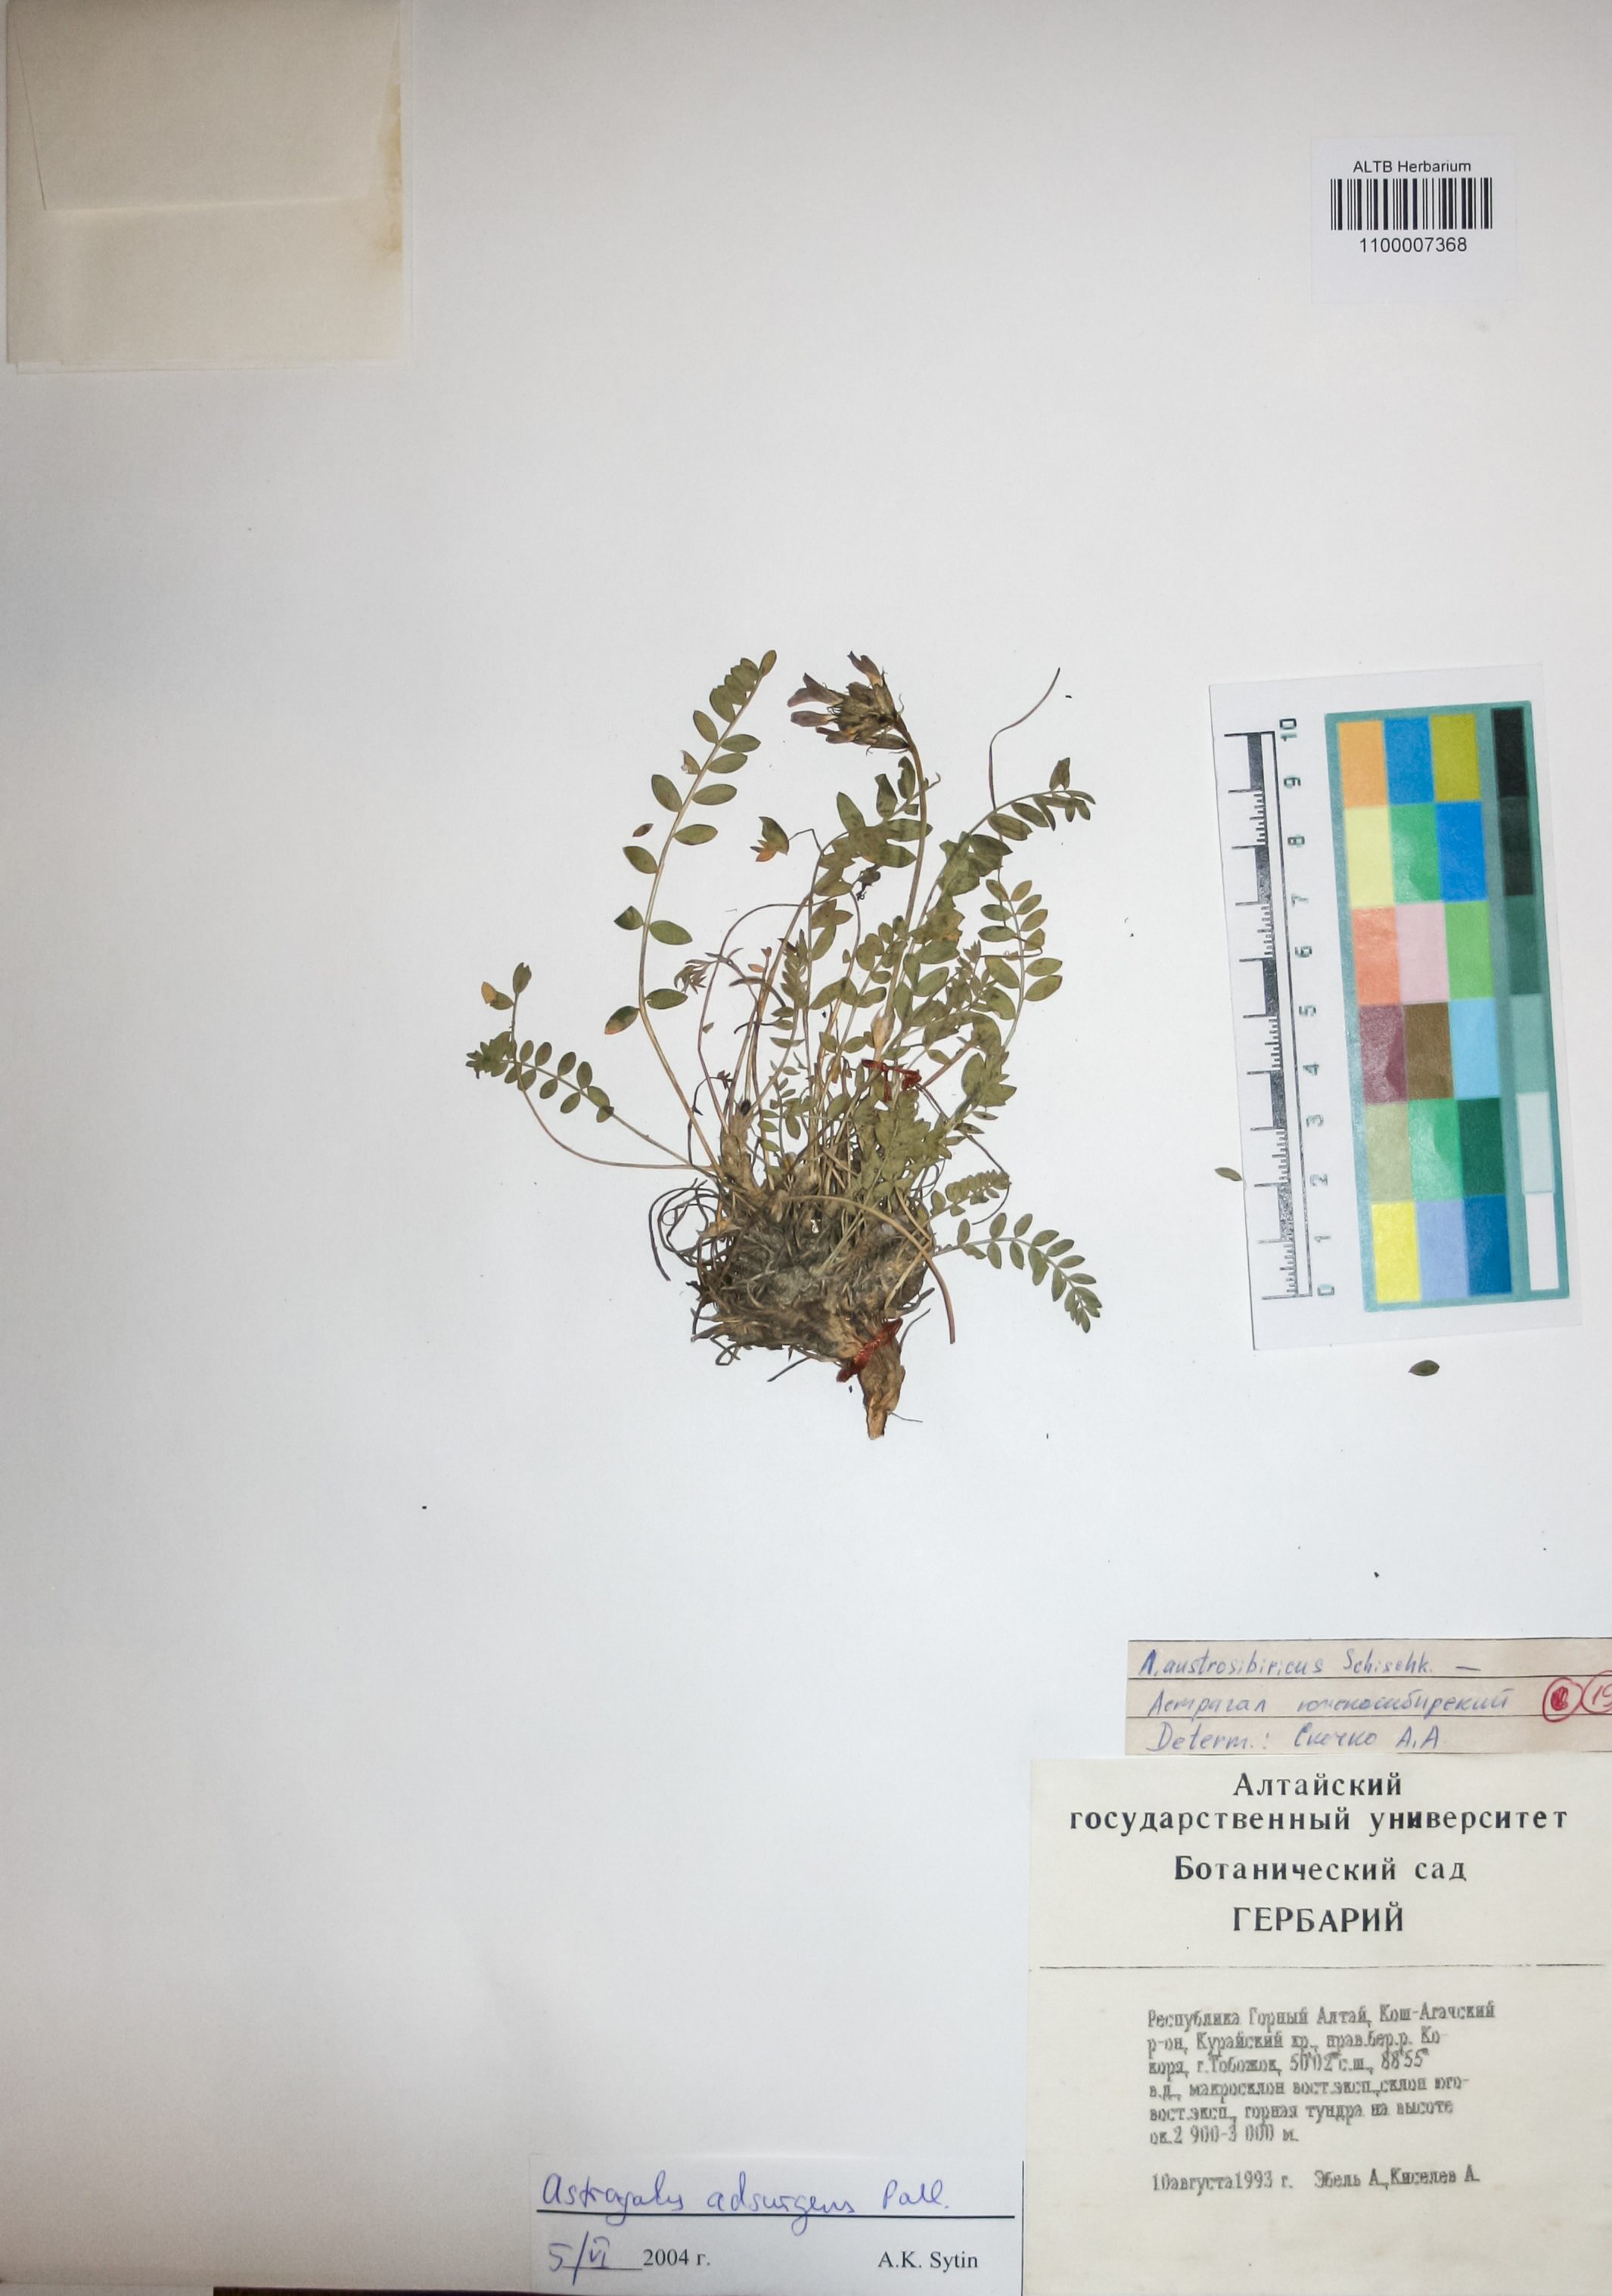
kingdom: Plantae
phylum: Tracheophyta
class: Magnoliopsida
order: Fabales
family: Fabaceae
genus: Astragalus
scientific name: Astragalus laxmannii
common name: Laxmann's milk-vetch
